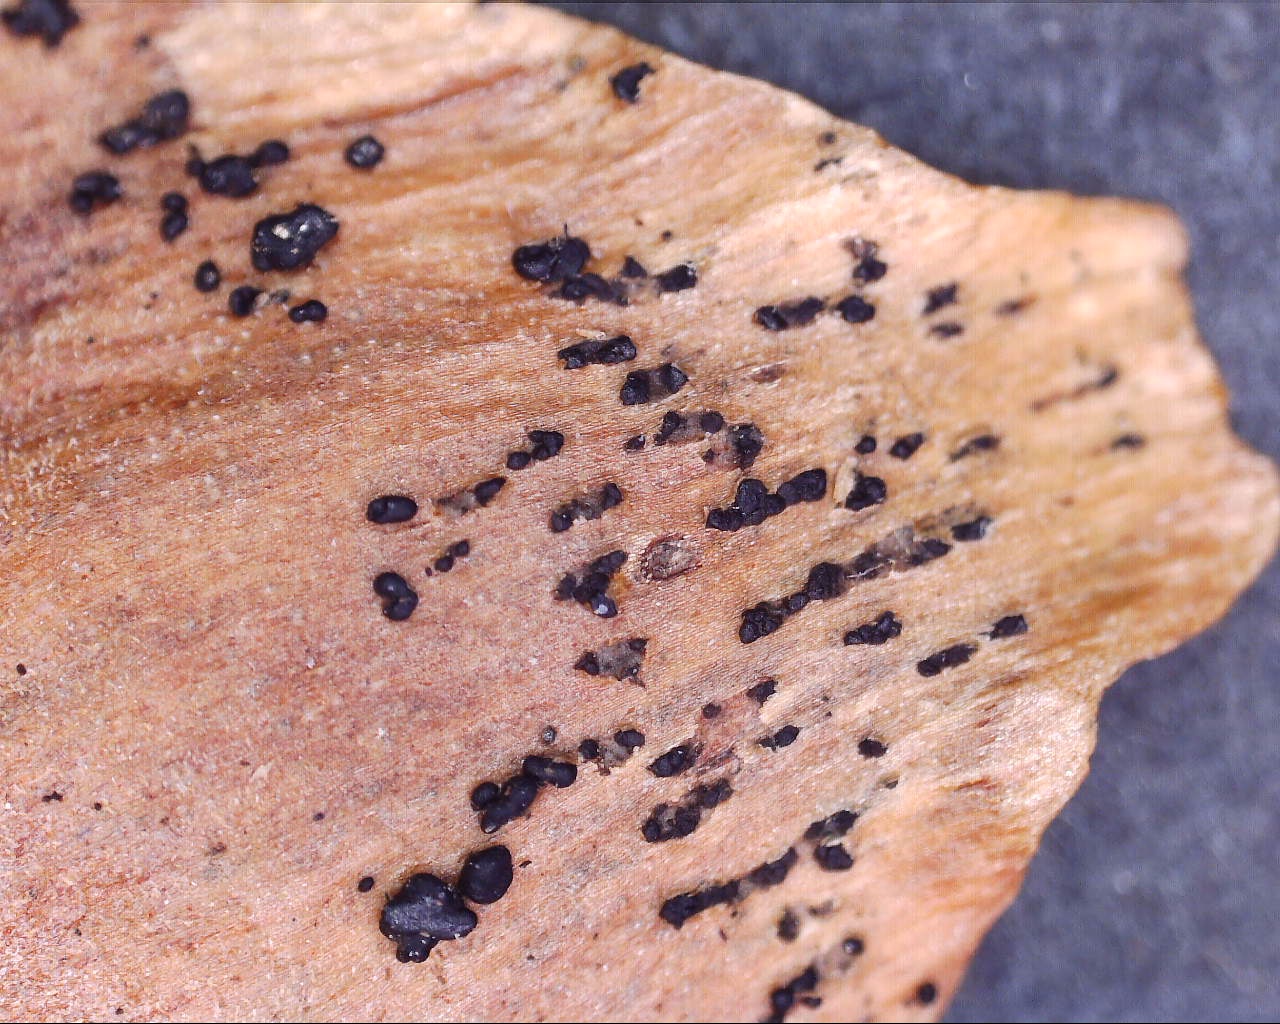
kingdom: Fungi
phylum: Ascomycota
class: Sordariomycetes
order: Diaporthales
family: Gnomoniaceae
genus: Sirococcus
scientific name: Sirococcus conigenus
